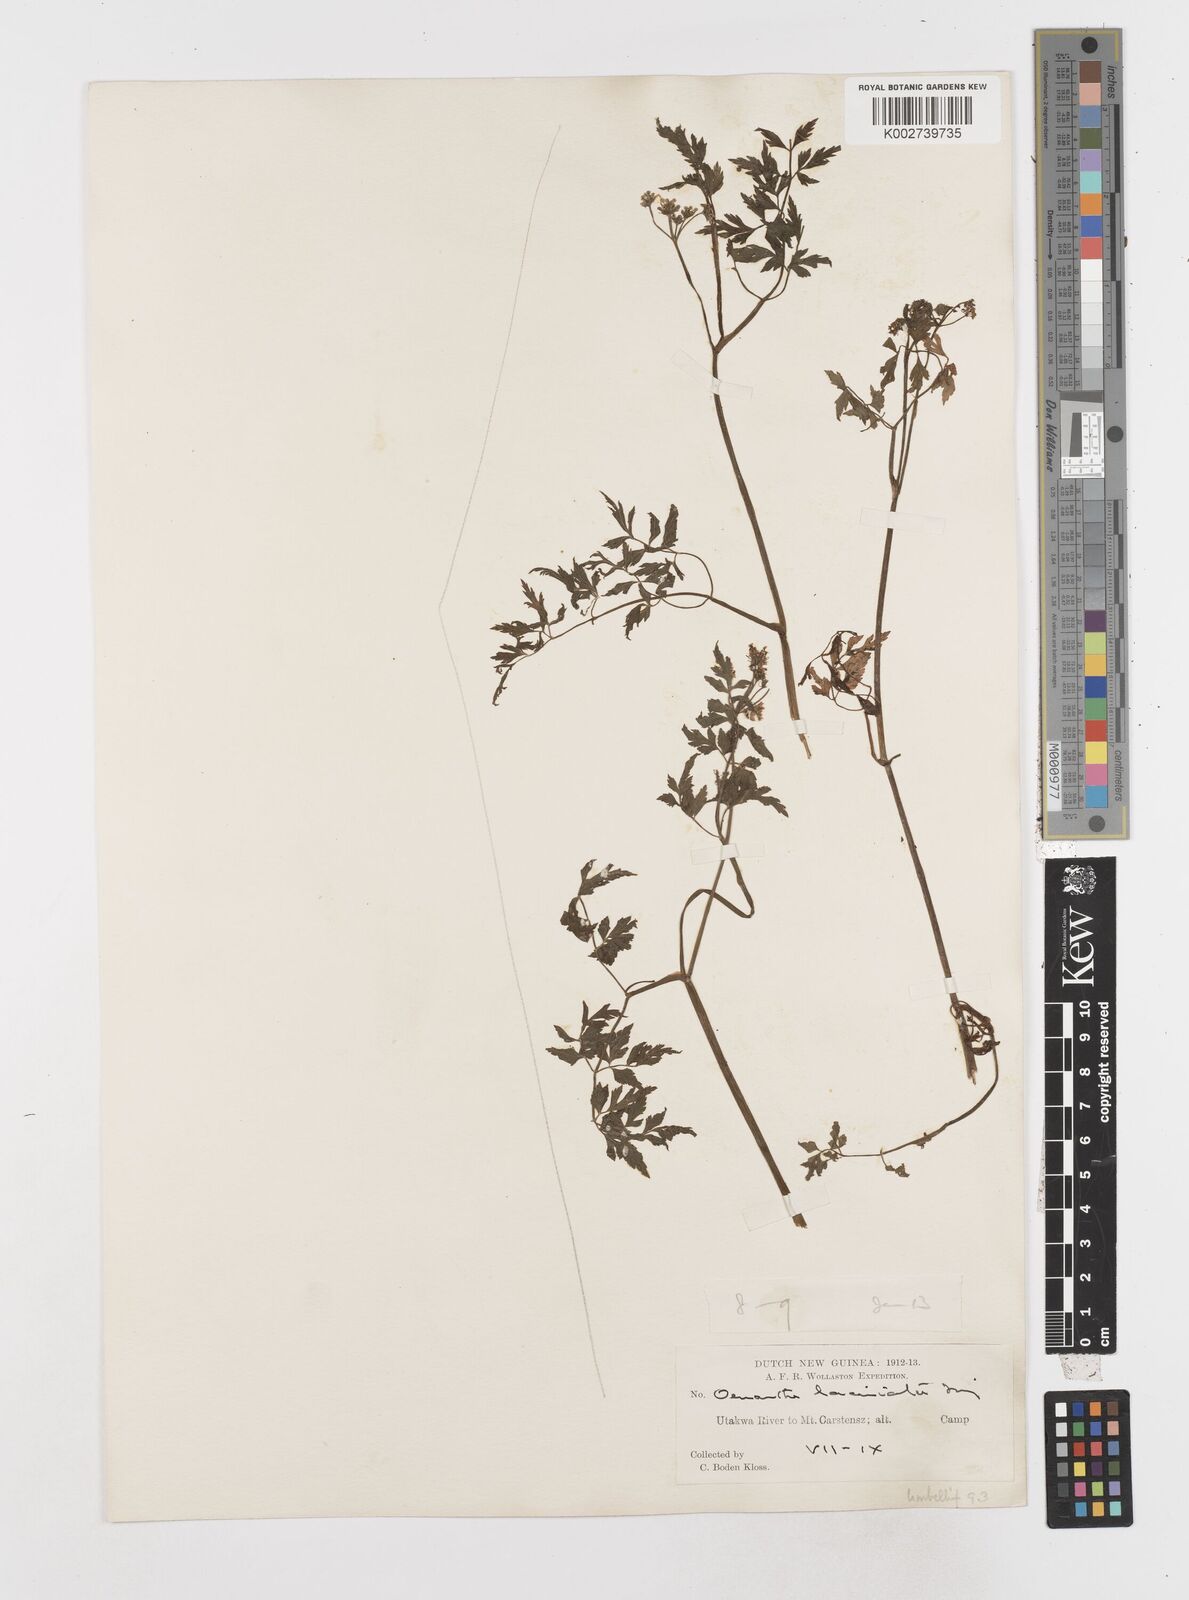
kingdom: Plantae
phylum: Tracheophyta
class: Magnoliopsida
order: Apiales
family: Apiaceae
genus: Oenanthe
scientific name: Oenanthe javanica
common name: Java water-dropwort
